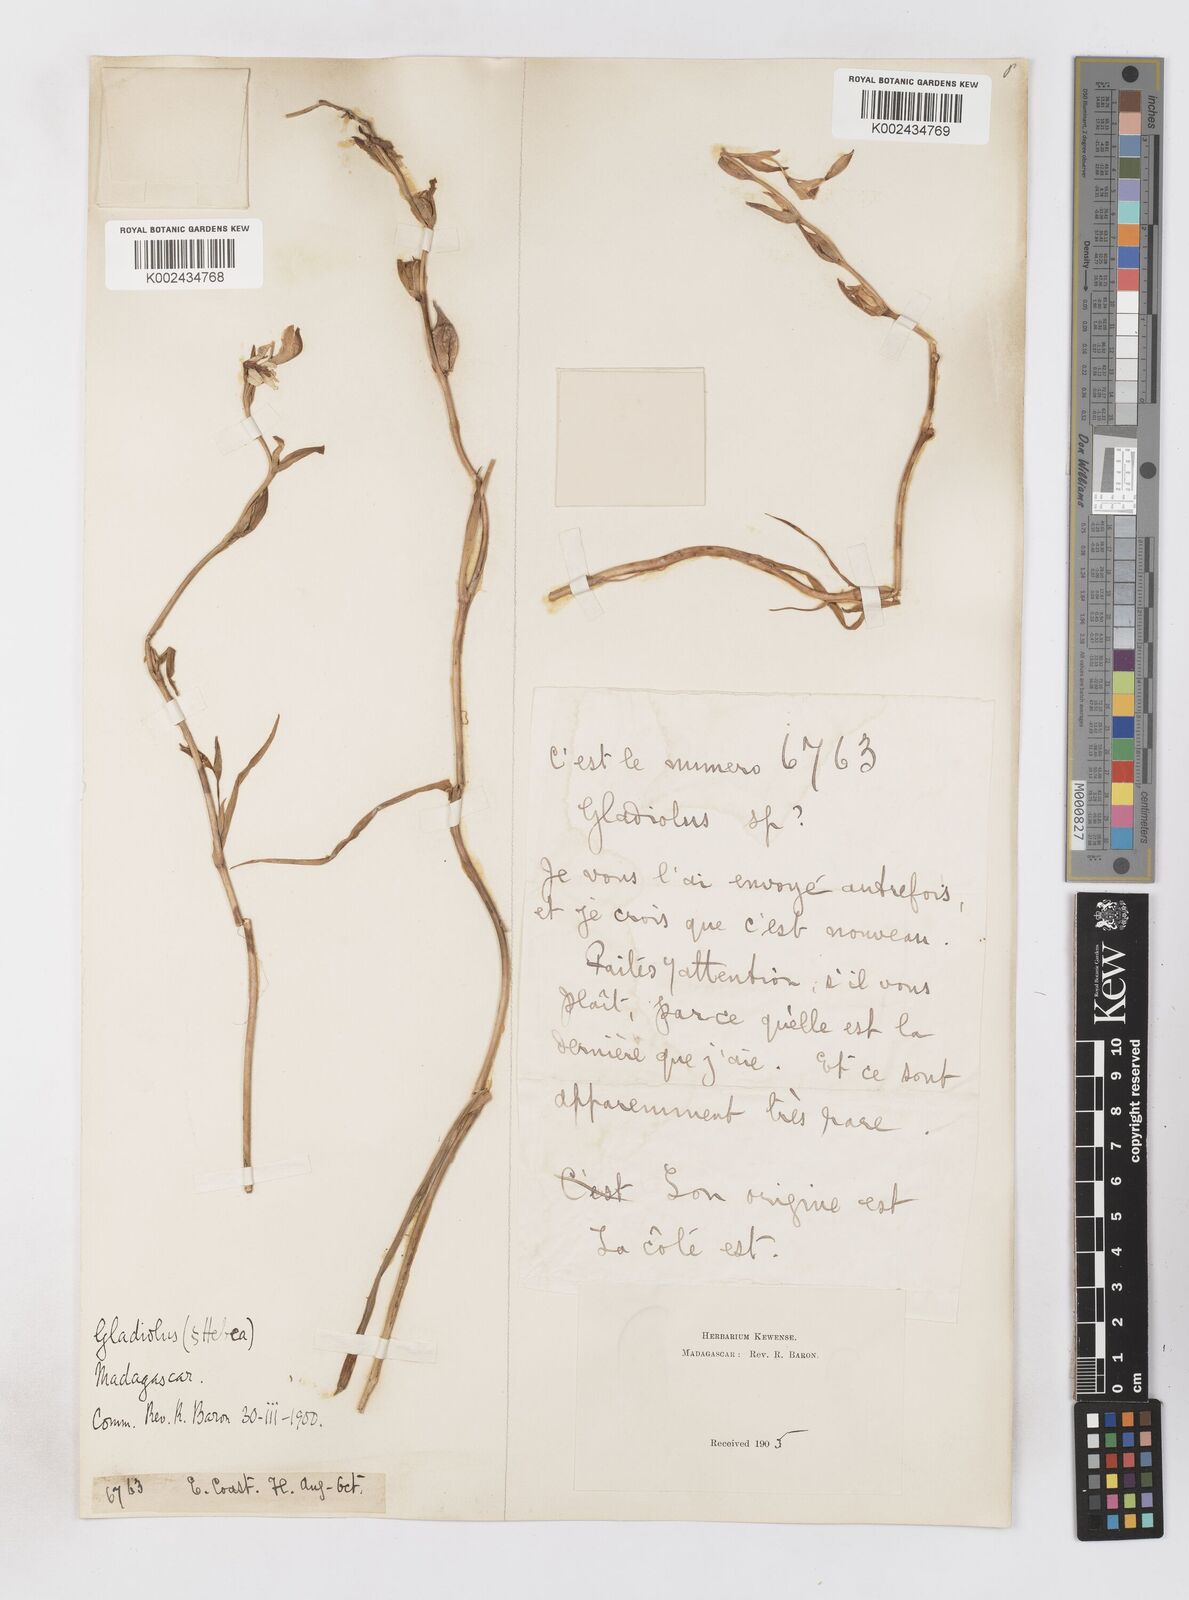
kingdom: Plantae
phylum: Tracheophyta
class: Liliopsida
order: Asparagales
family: Iridaceae
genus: Gladiolus
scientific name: Gladiolus luteus
